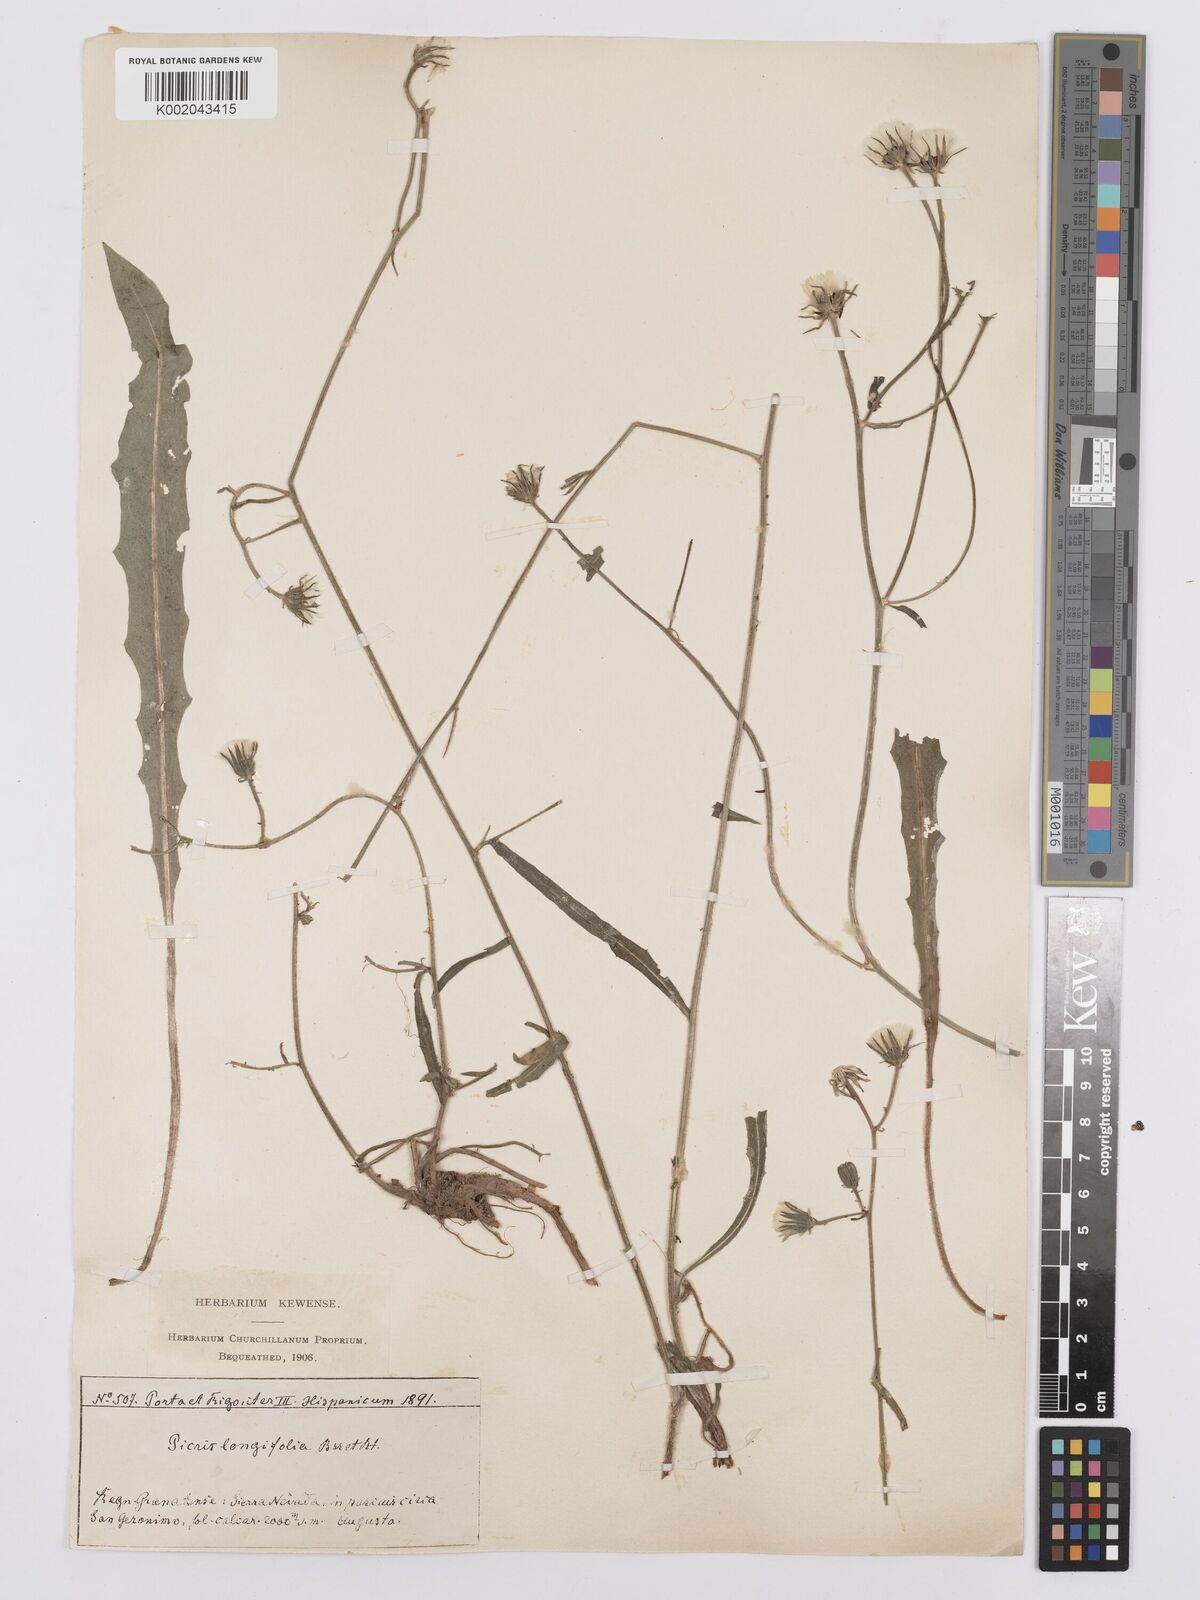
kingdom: Plantae
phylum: Tracheophyta
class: Magnoliopsida
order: Asterales
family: Asteraceae
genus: Picris
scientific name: Picris hieracioides
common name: Hawkweed oxtongue
